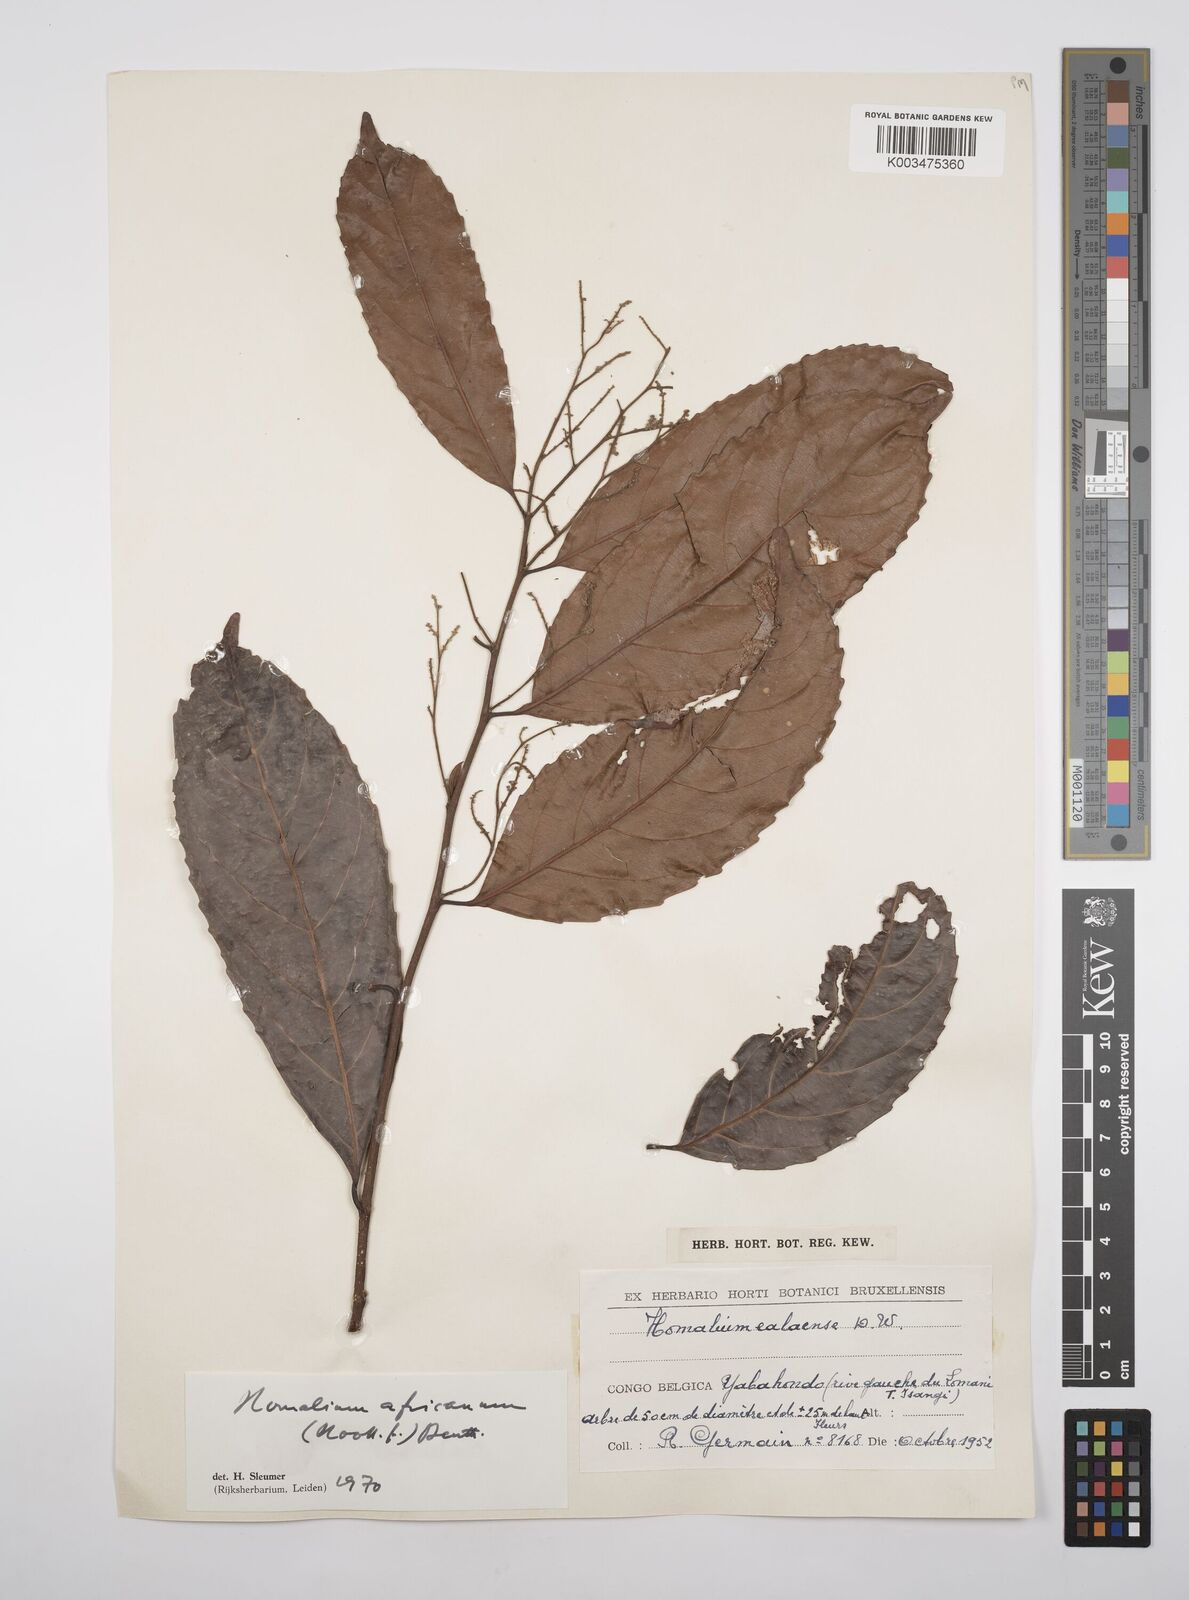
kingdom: Plantae
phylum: Tracheophyta
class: Magnoliopsida
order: Malpighiales
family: Salicaceae
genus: Homalium
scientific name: Homalium africanum
